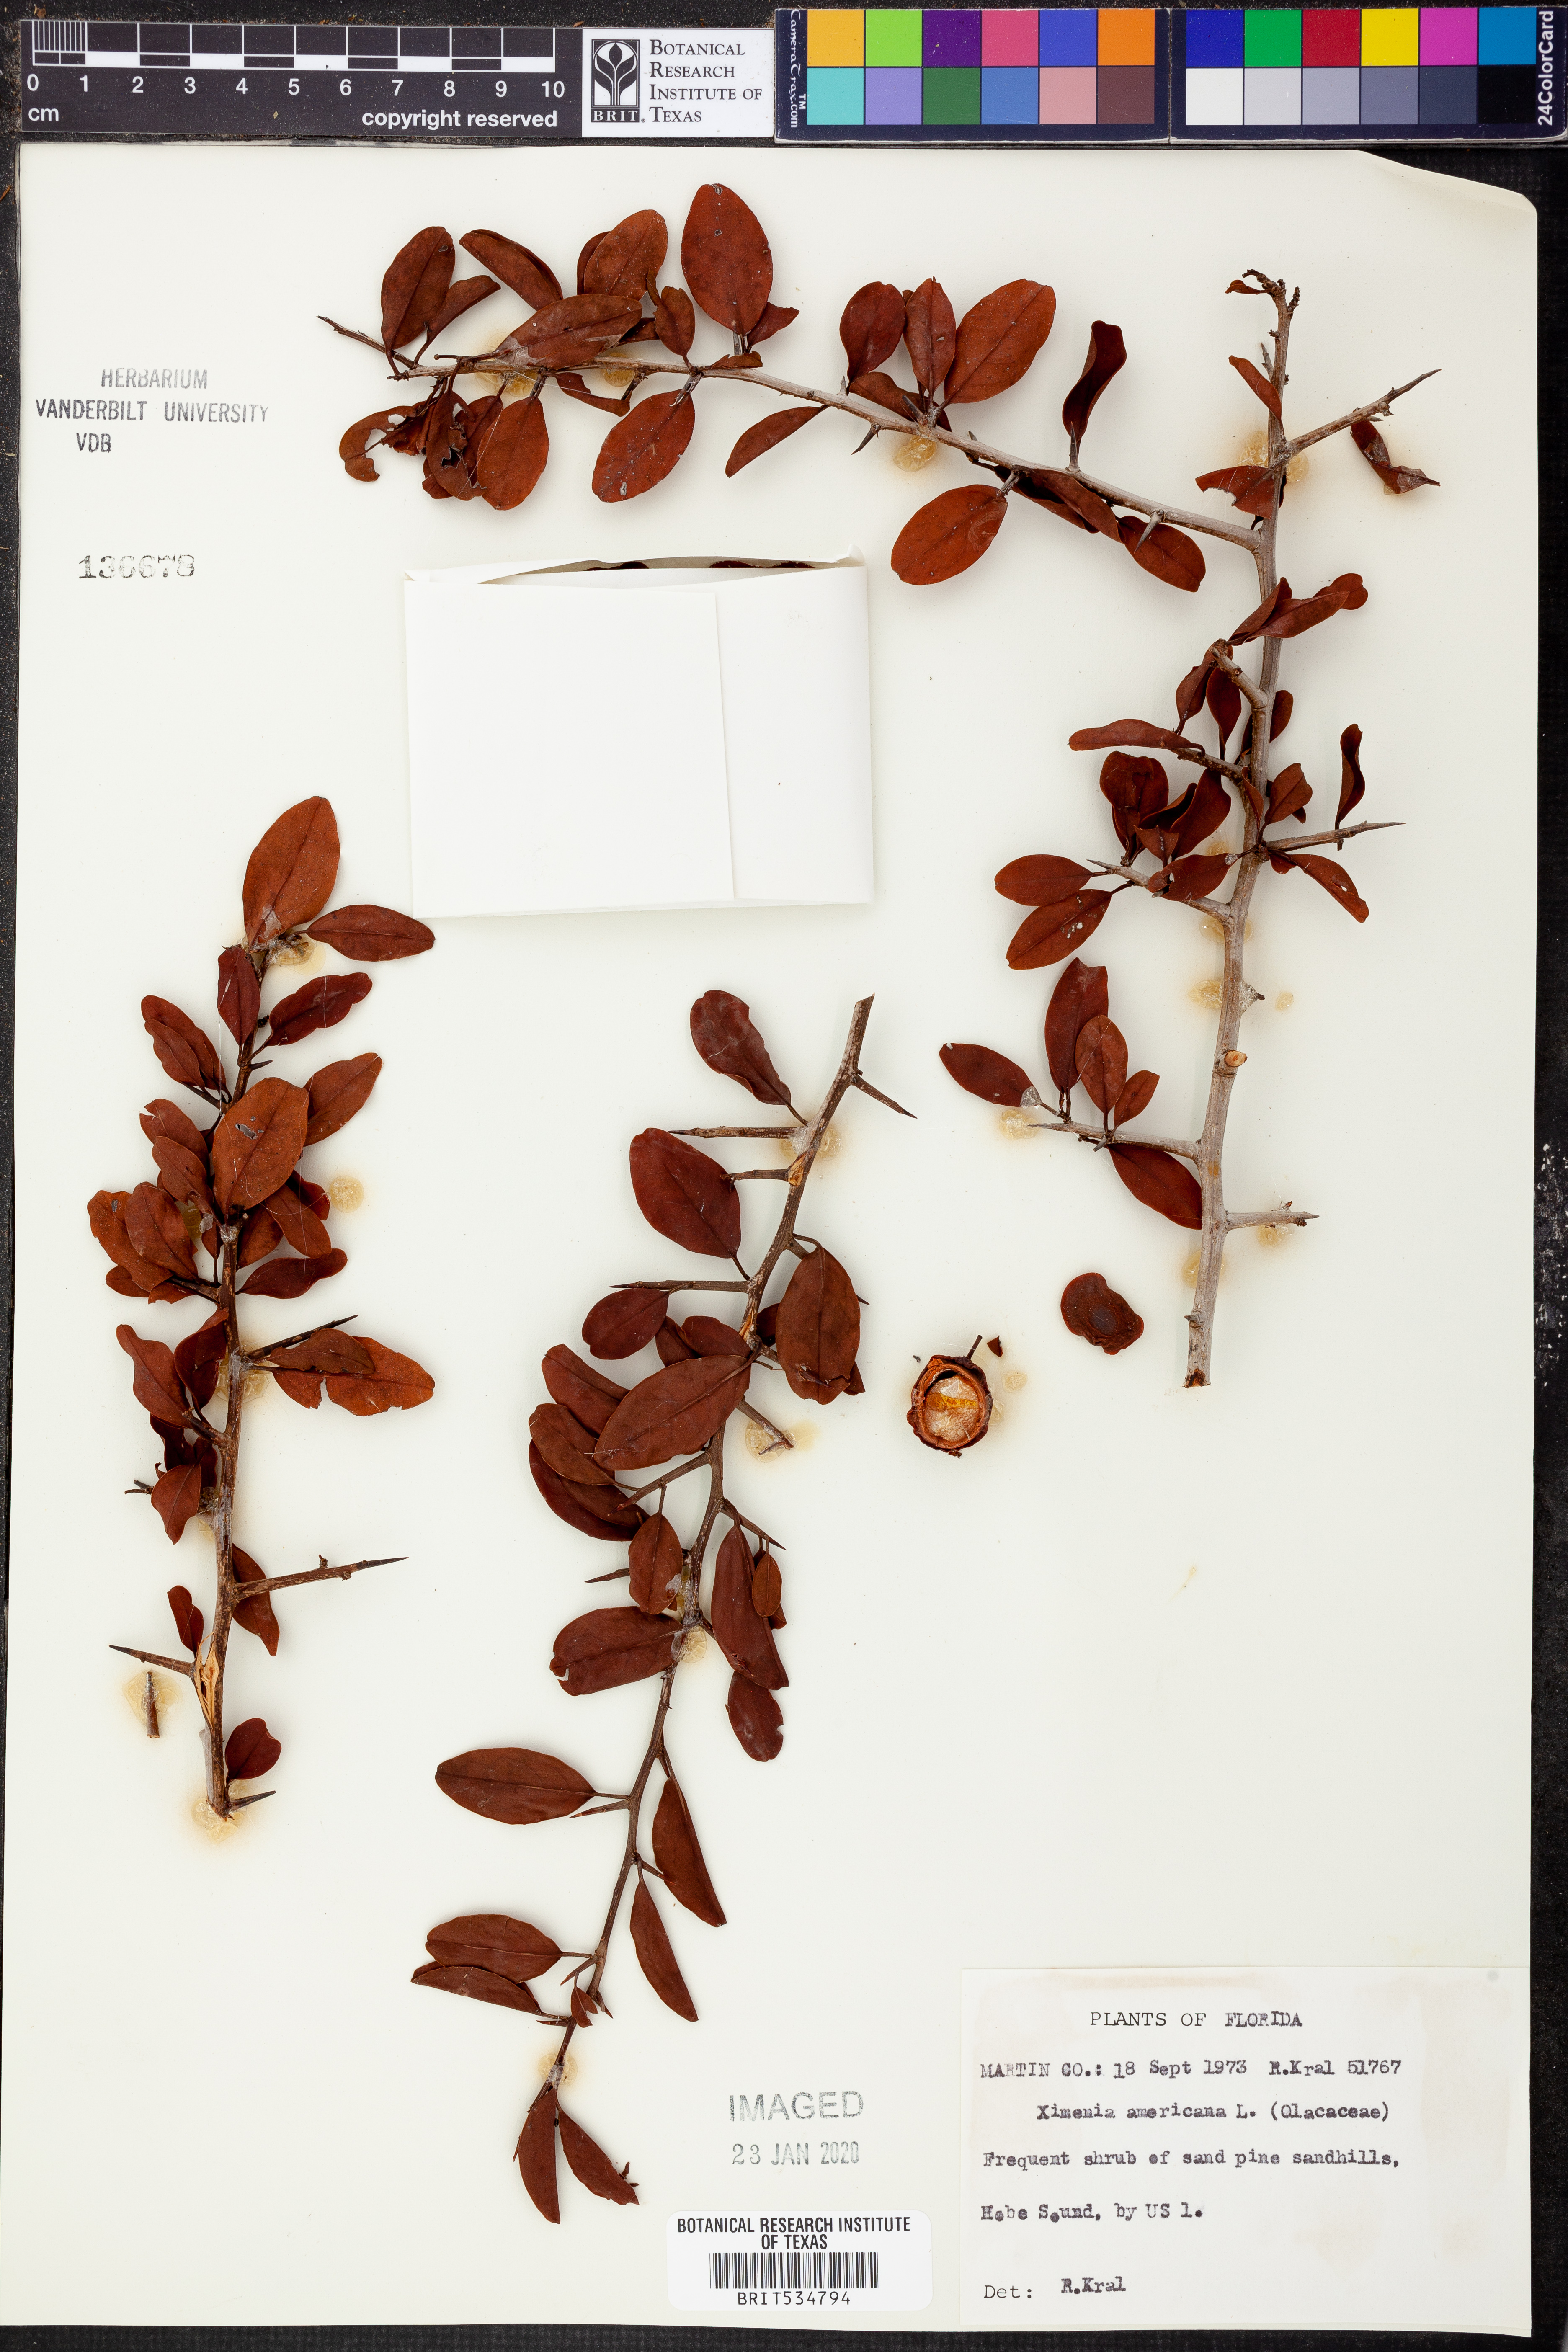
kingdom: Plantae
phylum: Tracheophyta
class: Magnoliopsida
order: Santalales
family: Ximeniaceae
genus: Ximenia
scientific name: Ximenia americana
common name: Tallowwood
